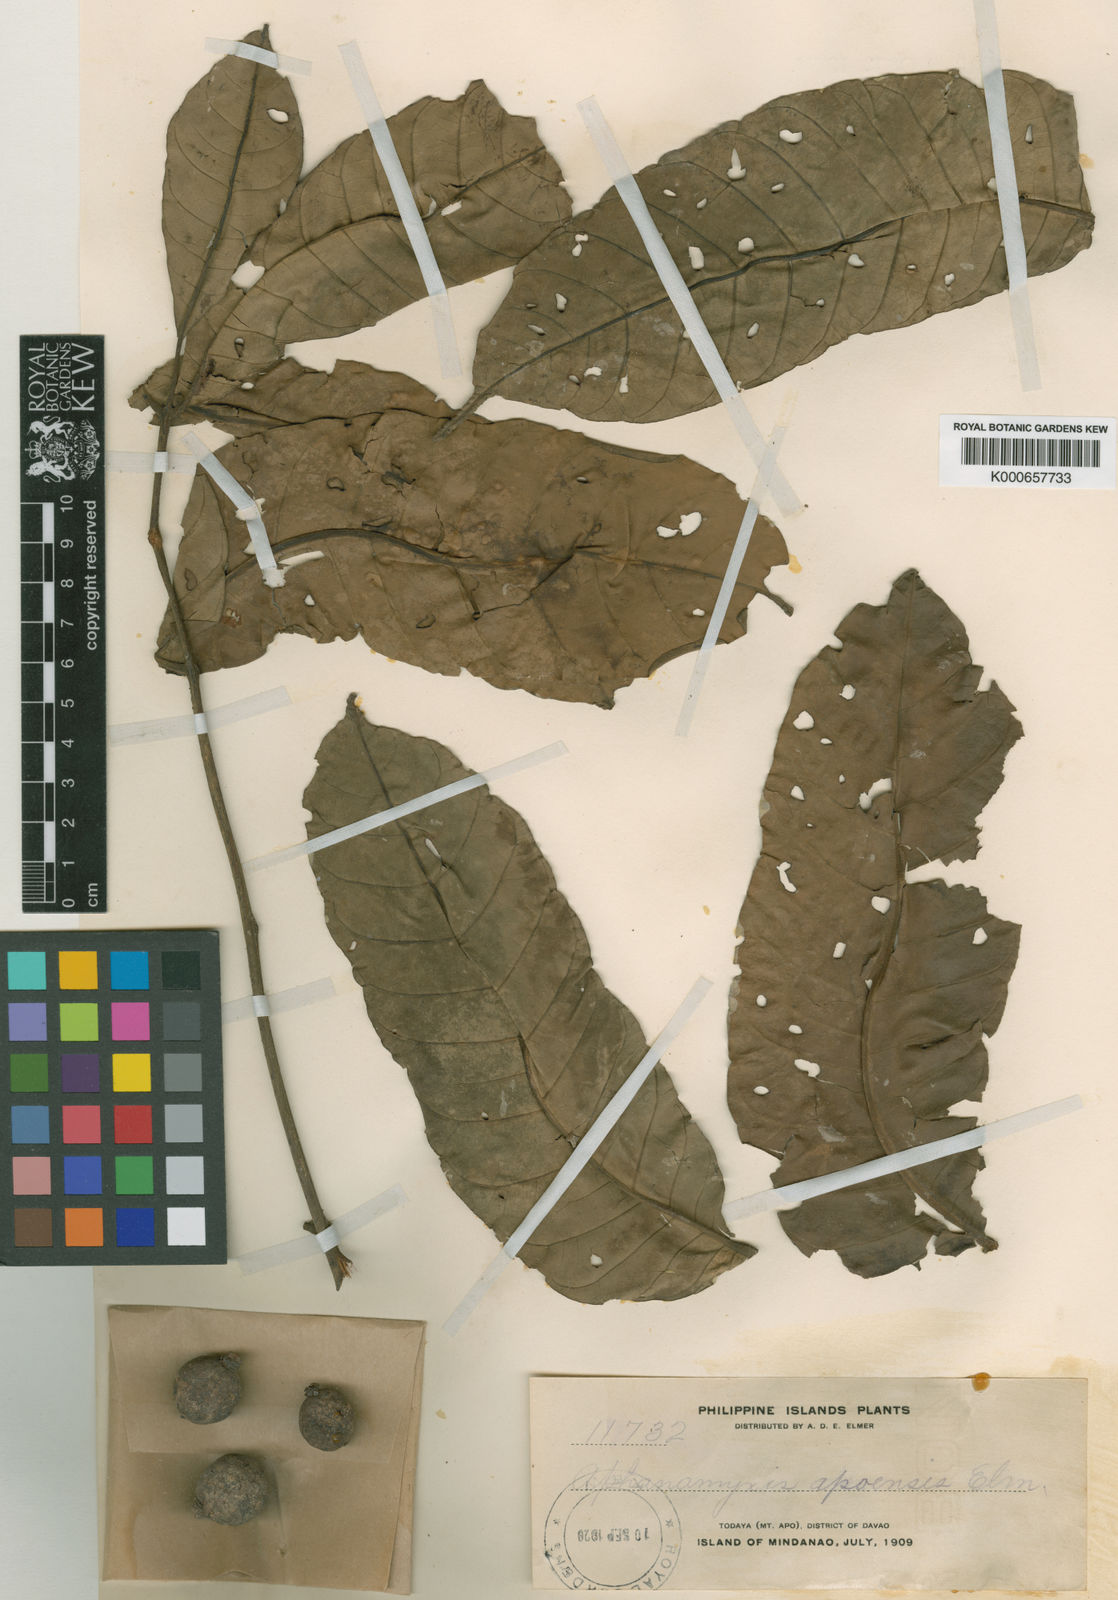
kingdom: Plantae
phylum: Tracheophyta
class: Magnoliopsida
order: Sapindales
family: Meliaceae
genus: Aphanamixis
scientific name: Aphanamixis polystachya
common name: Pithraj tree
